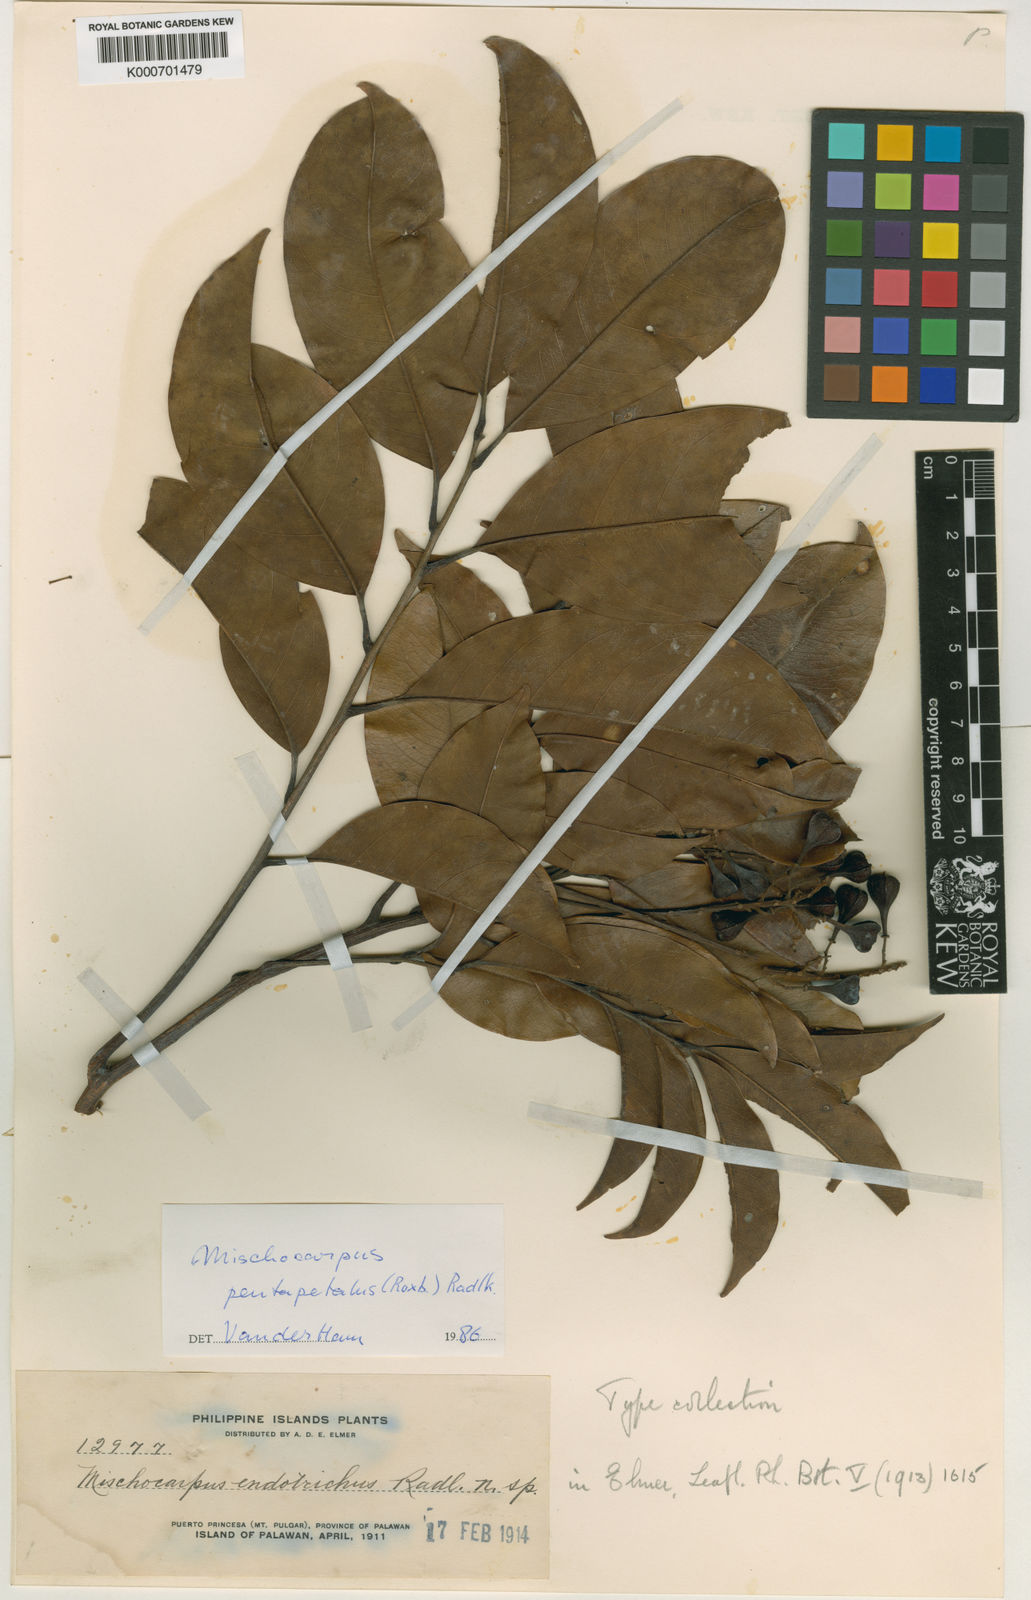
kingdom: Plantae
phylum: Tracheophyta
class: Magnoliopsida
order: Sapindales
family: Sapindaceae
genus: Mischocarpus
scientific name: Mischocarpus pentapetalus
